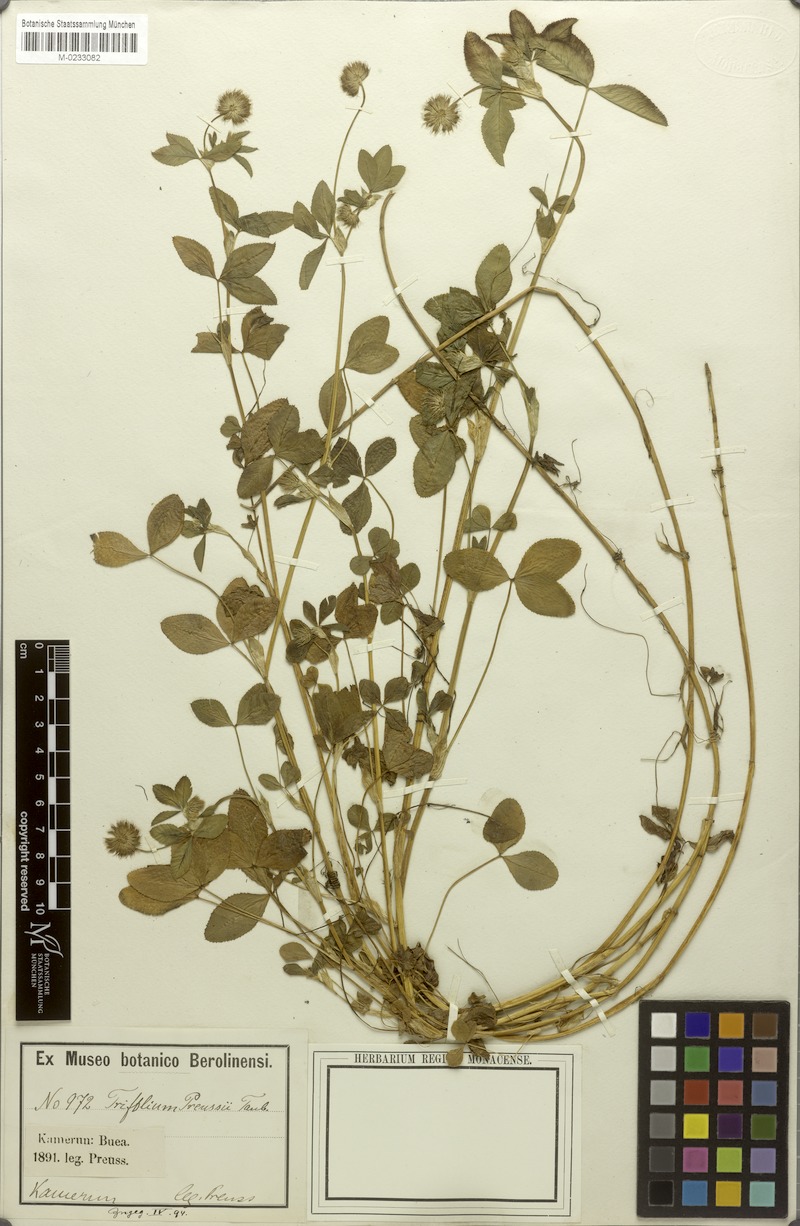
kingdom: Plantae
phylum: Tracheophyta
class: Magnoliopsida
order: Fabales
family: Fabaceae
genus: Trifolium
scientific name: Trifolium rueppellianum
